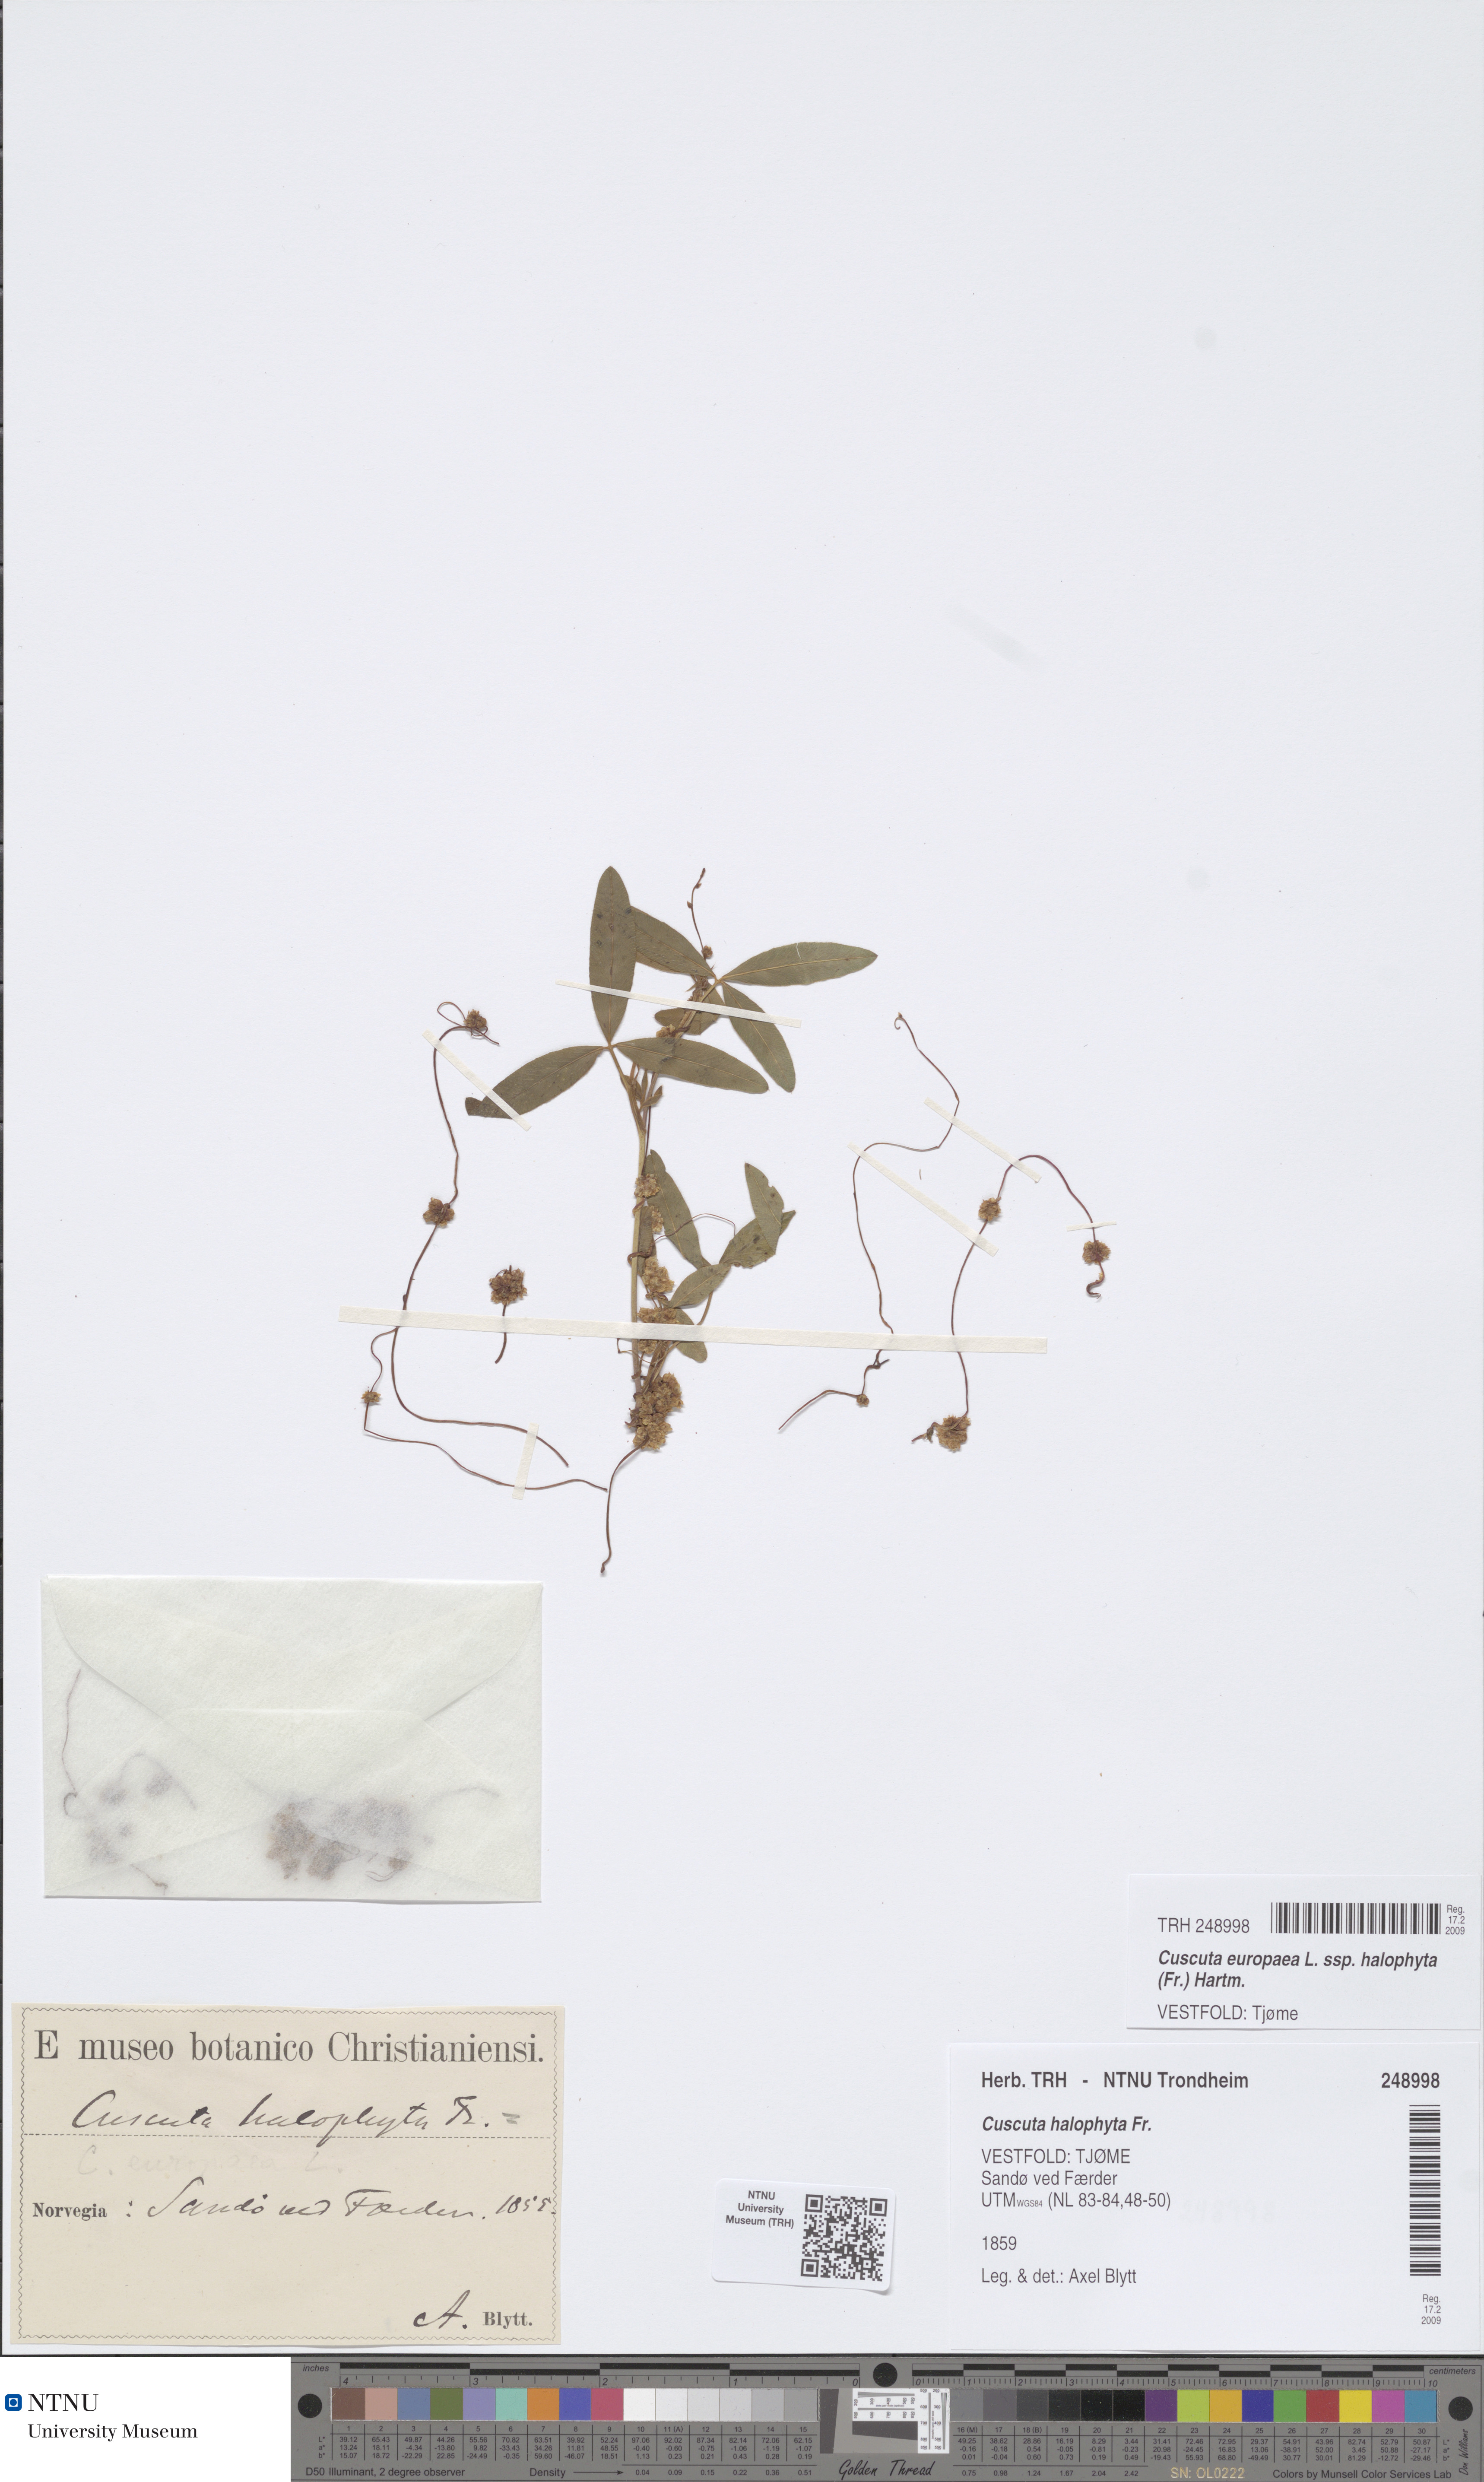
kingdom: Plantae
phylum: Tracheophyta
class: Magnoliopsida
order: Solanales
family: Convolvulaceae
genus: Cuscuta
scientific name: Cuscuta europaea
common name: Greater dodder
